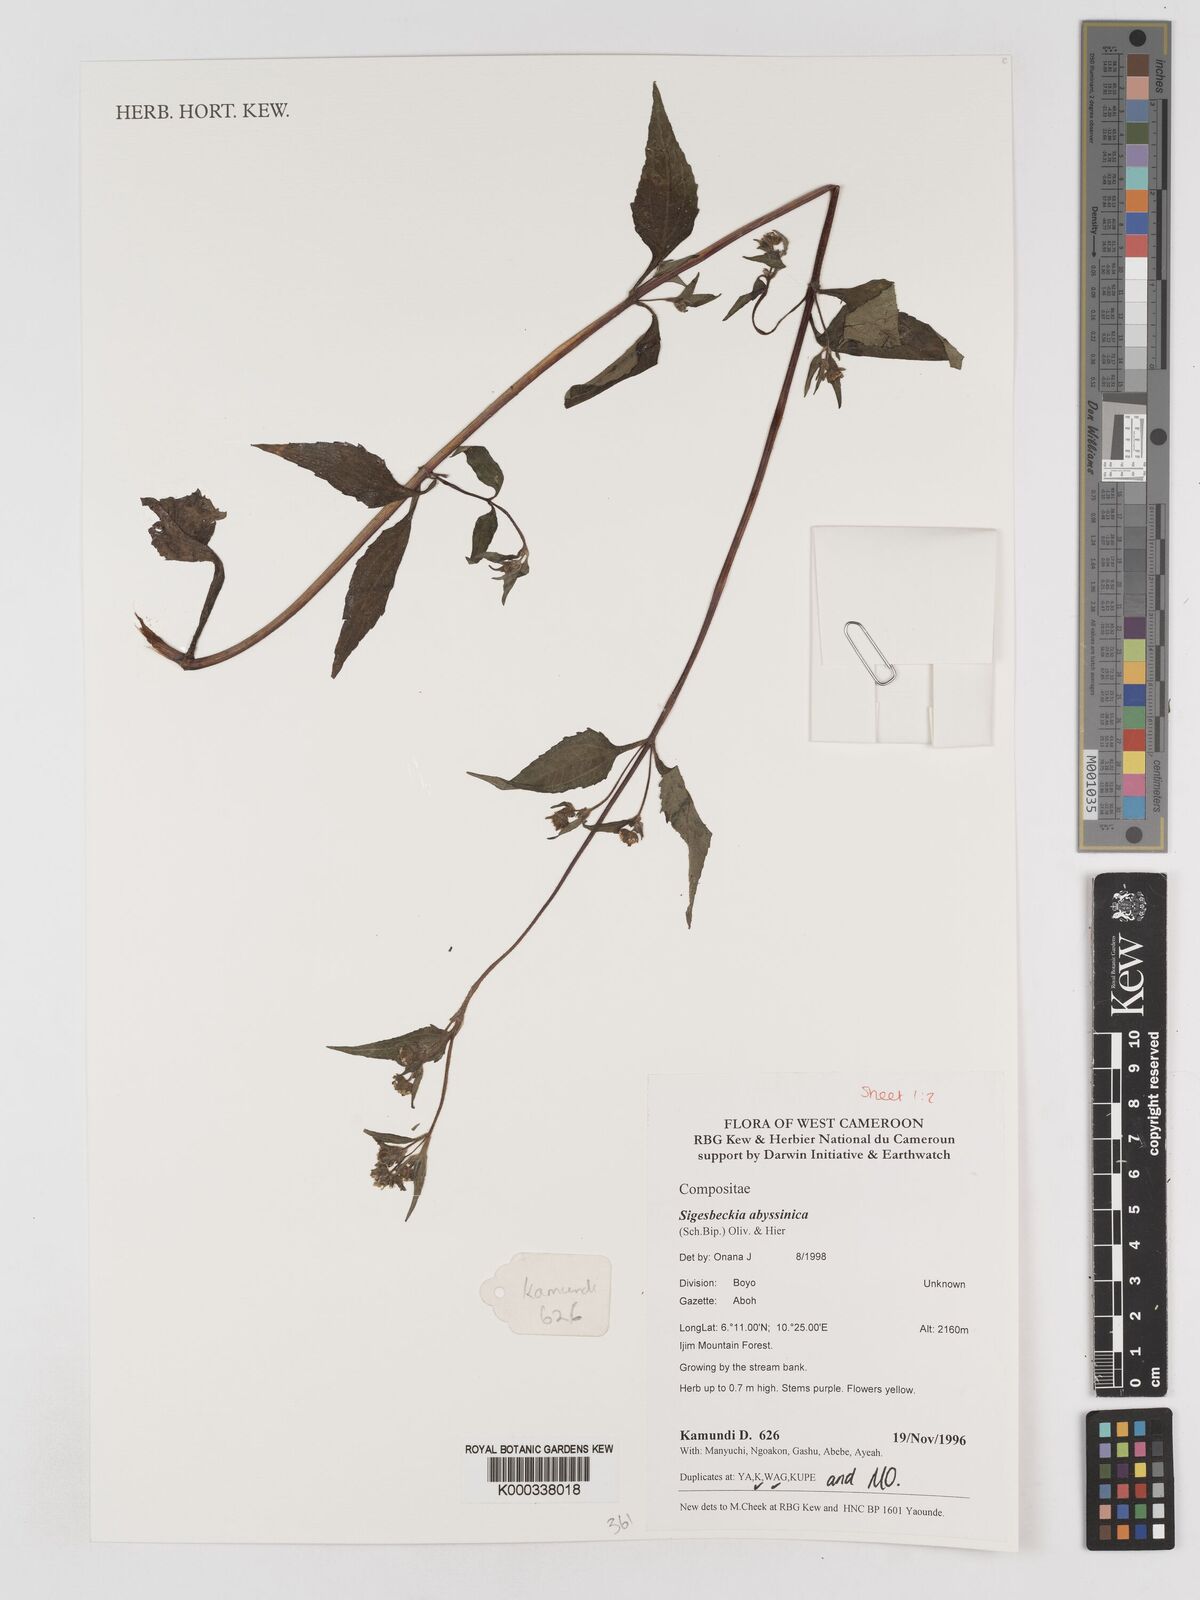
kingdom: Plantae
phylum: Tracheophyta
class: Magnoliopsida
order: Asterales
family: Asteraceae
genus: Micractis
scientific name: Micractis bojeri
